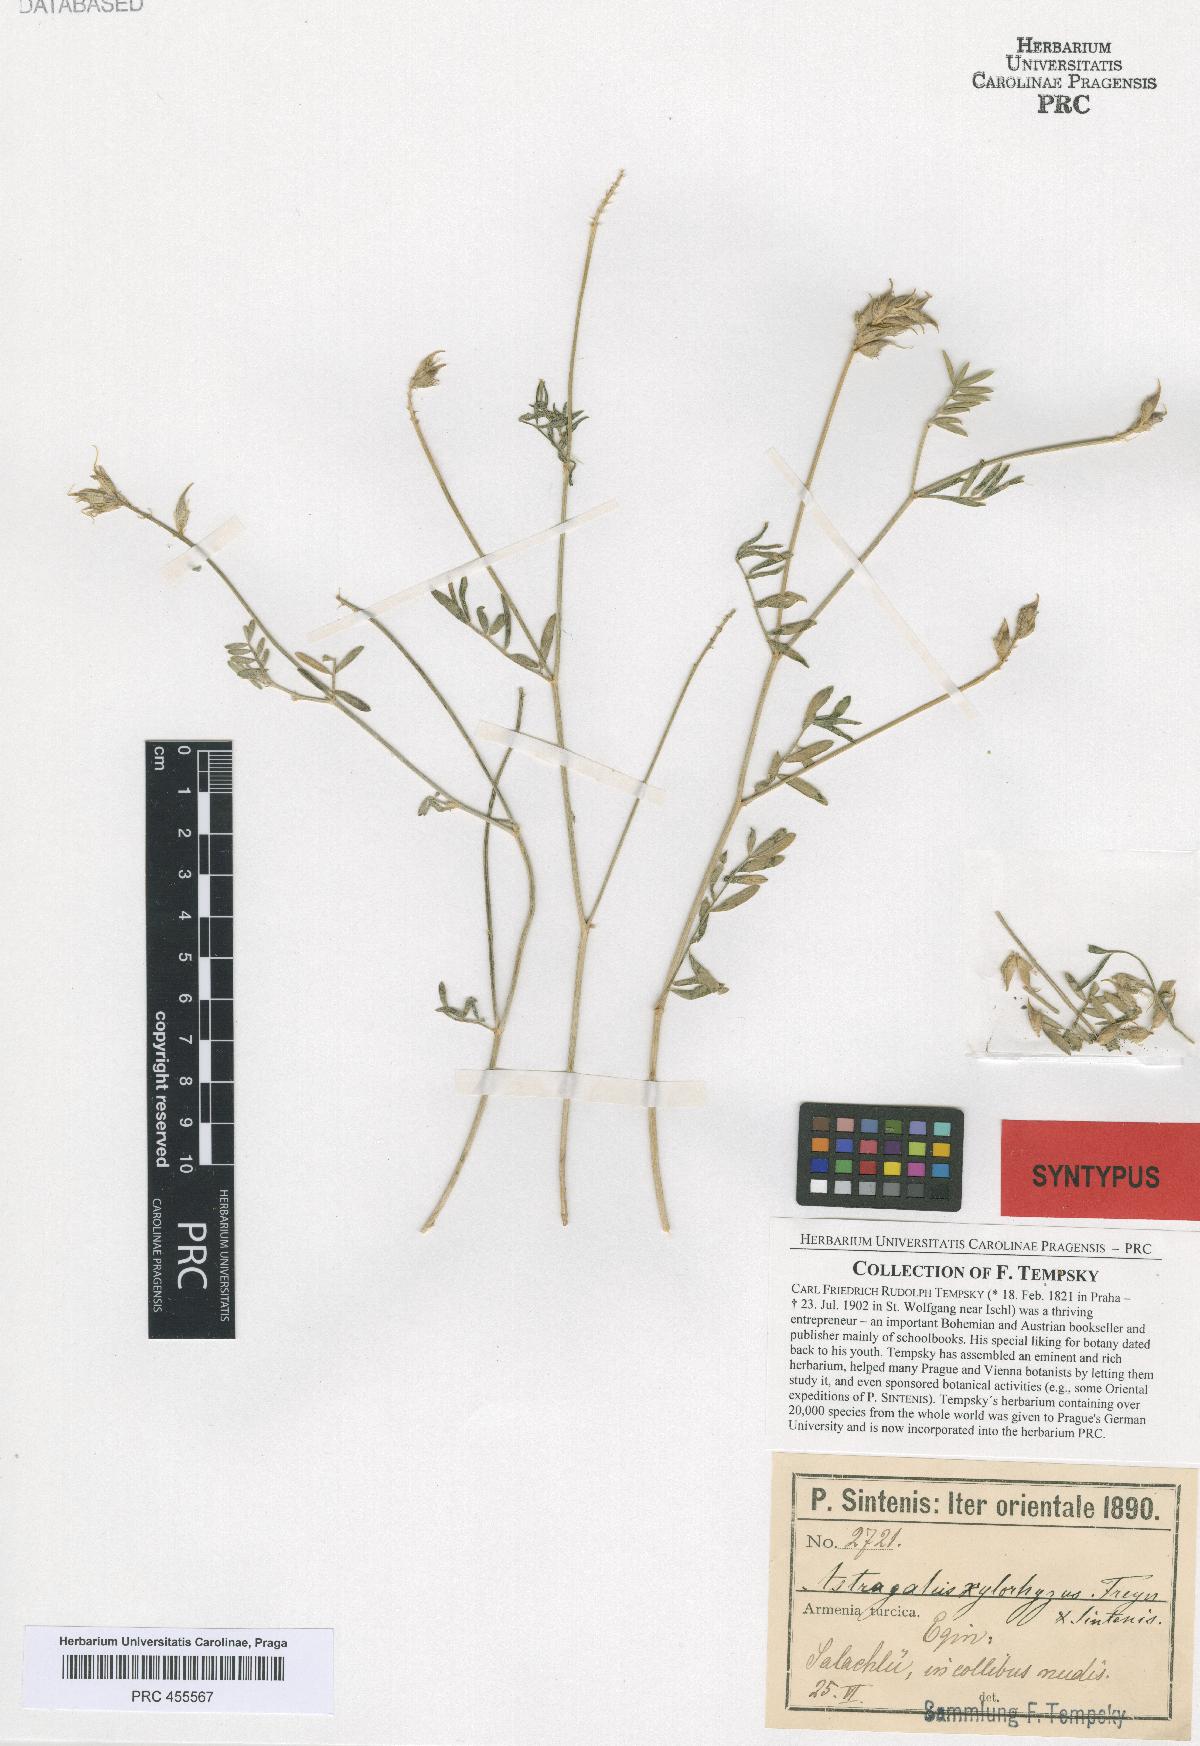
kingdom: Plantae
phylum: Tracheophyta
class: Magnoliopsida
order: Fabales
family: Fabaceae
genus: Astragalus
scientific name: Astragalus aduncus
